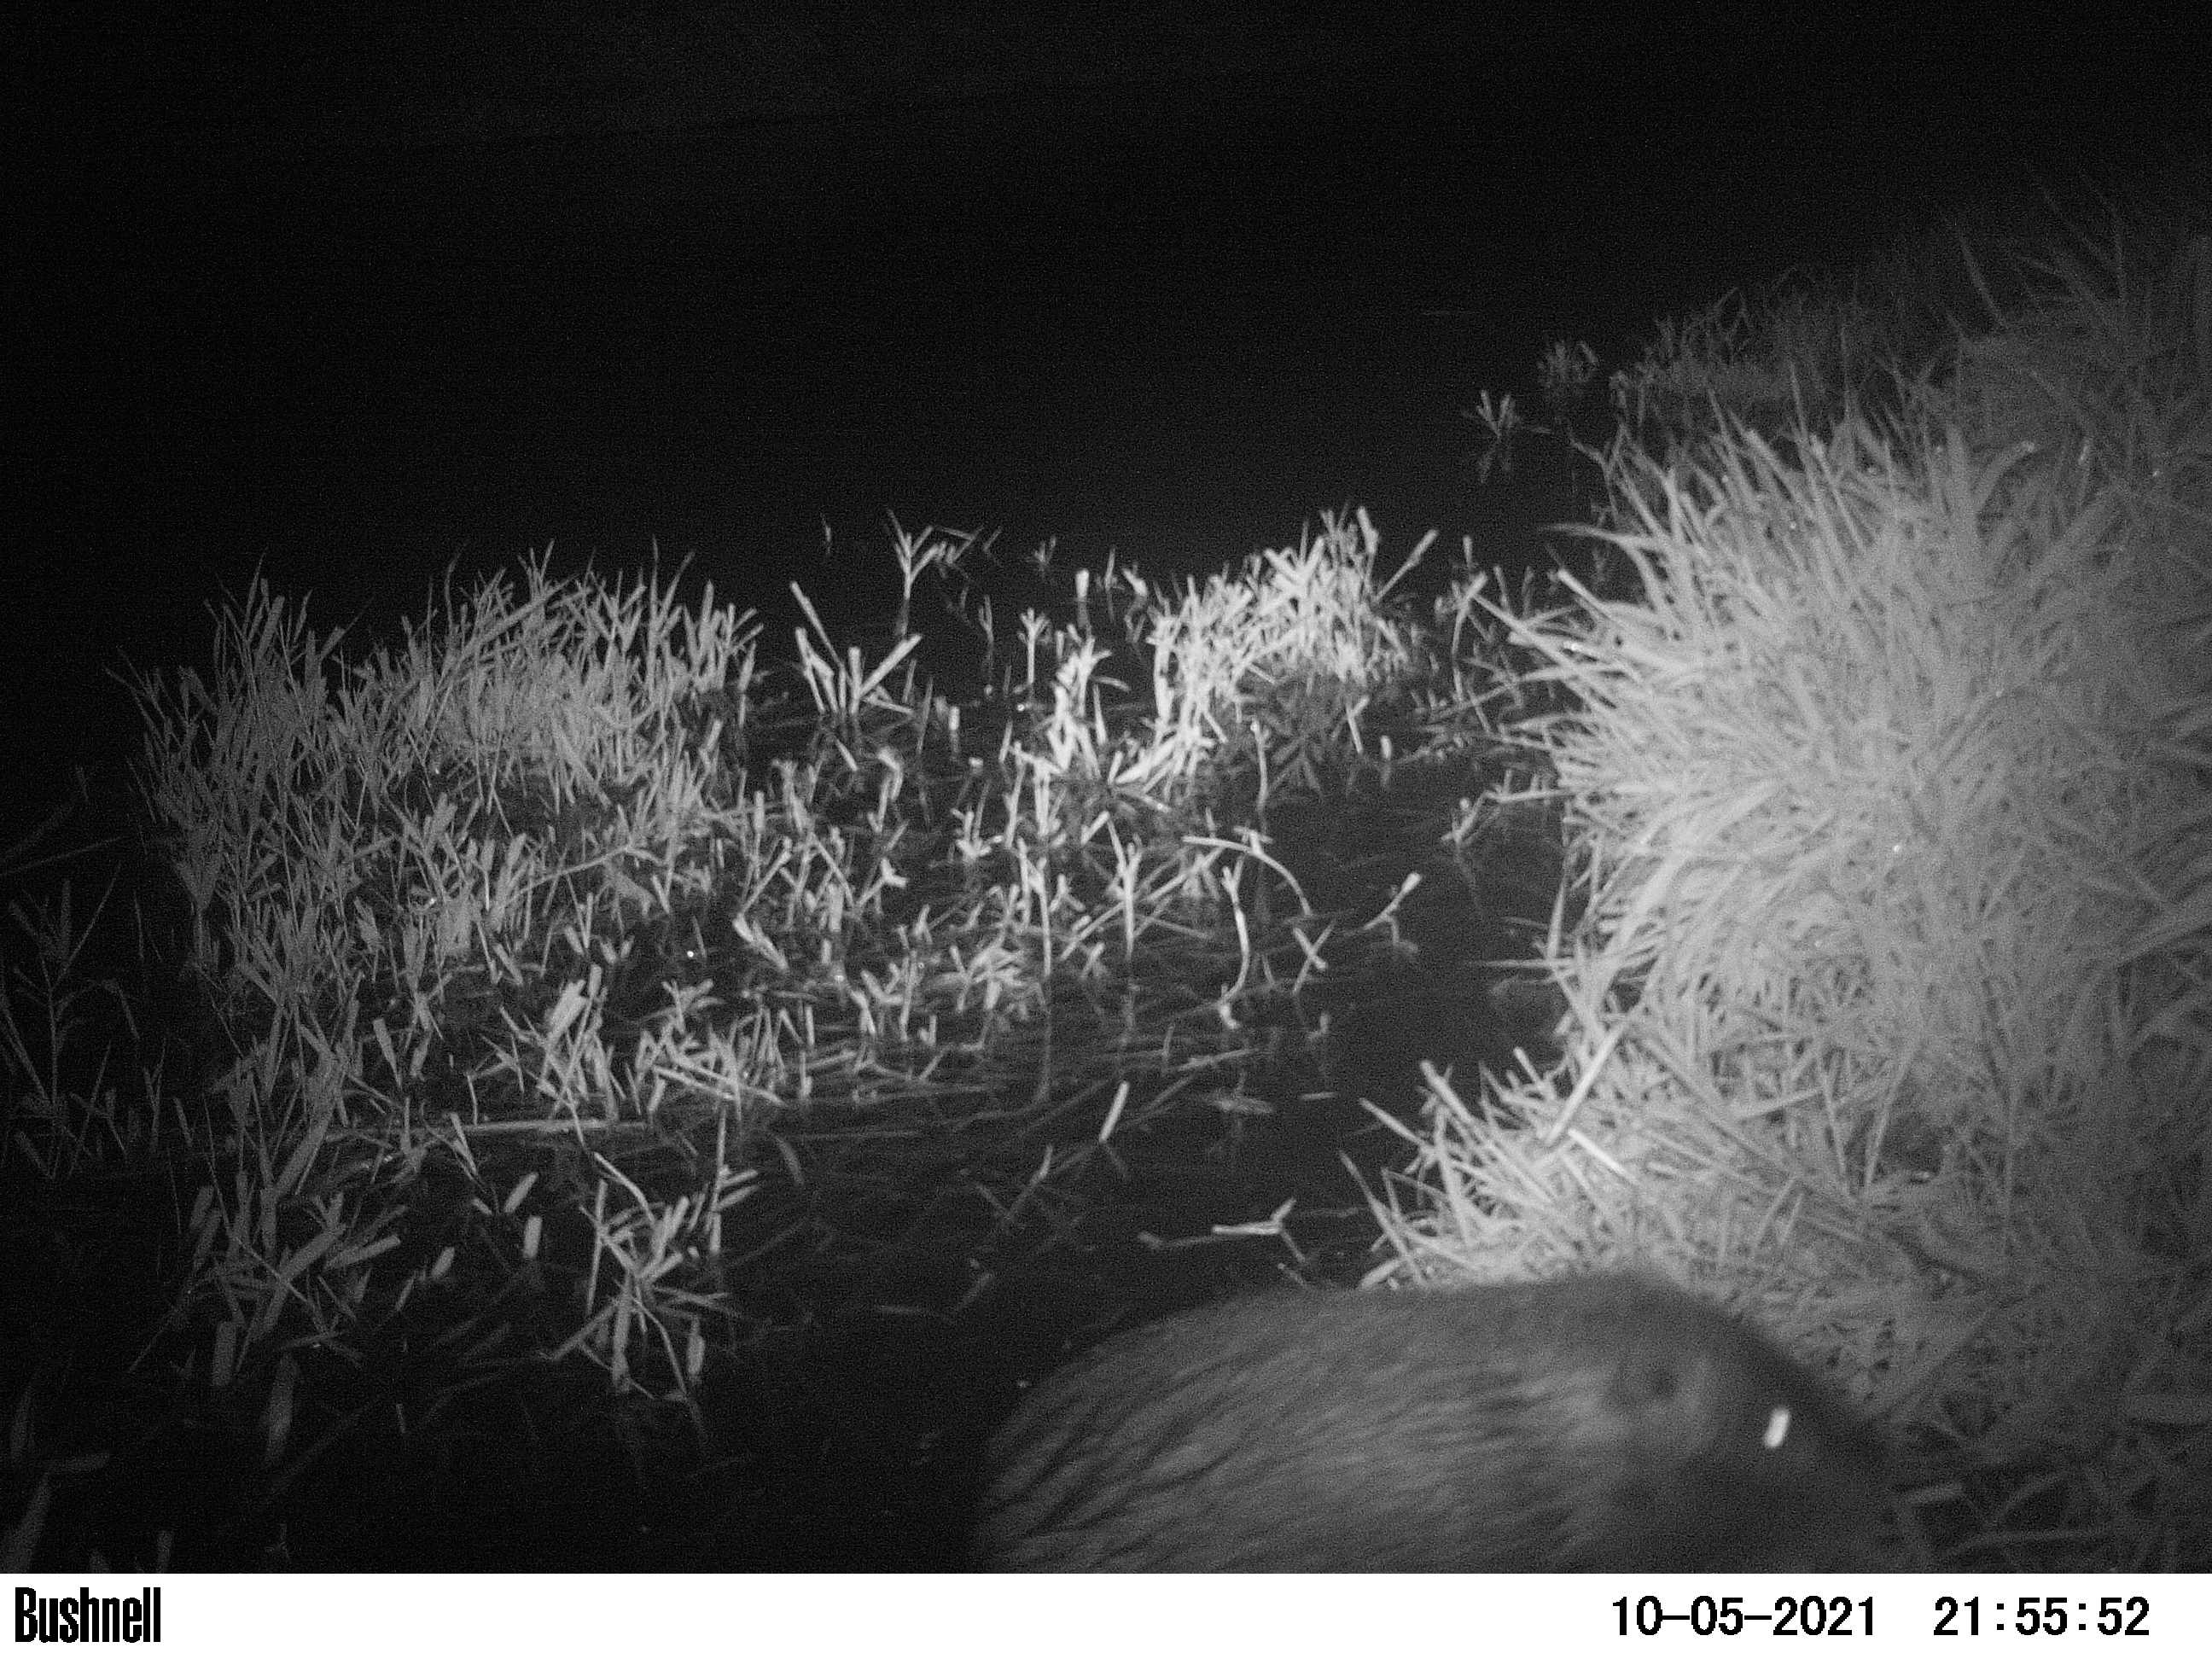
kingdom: Animalia
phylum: Chordata
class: Mammalia
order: Rodentia
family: Myocastoridae
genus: Myocastor
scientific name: Myocastor coypus
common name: Coypu
